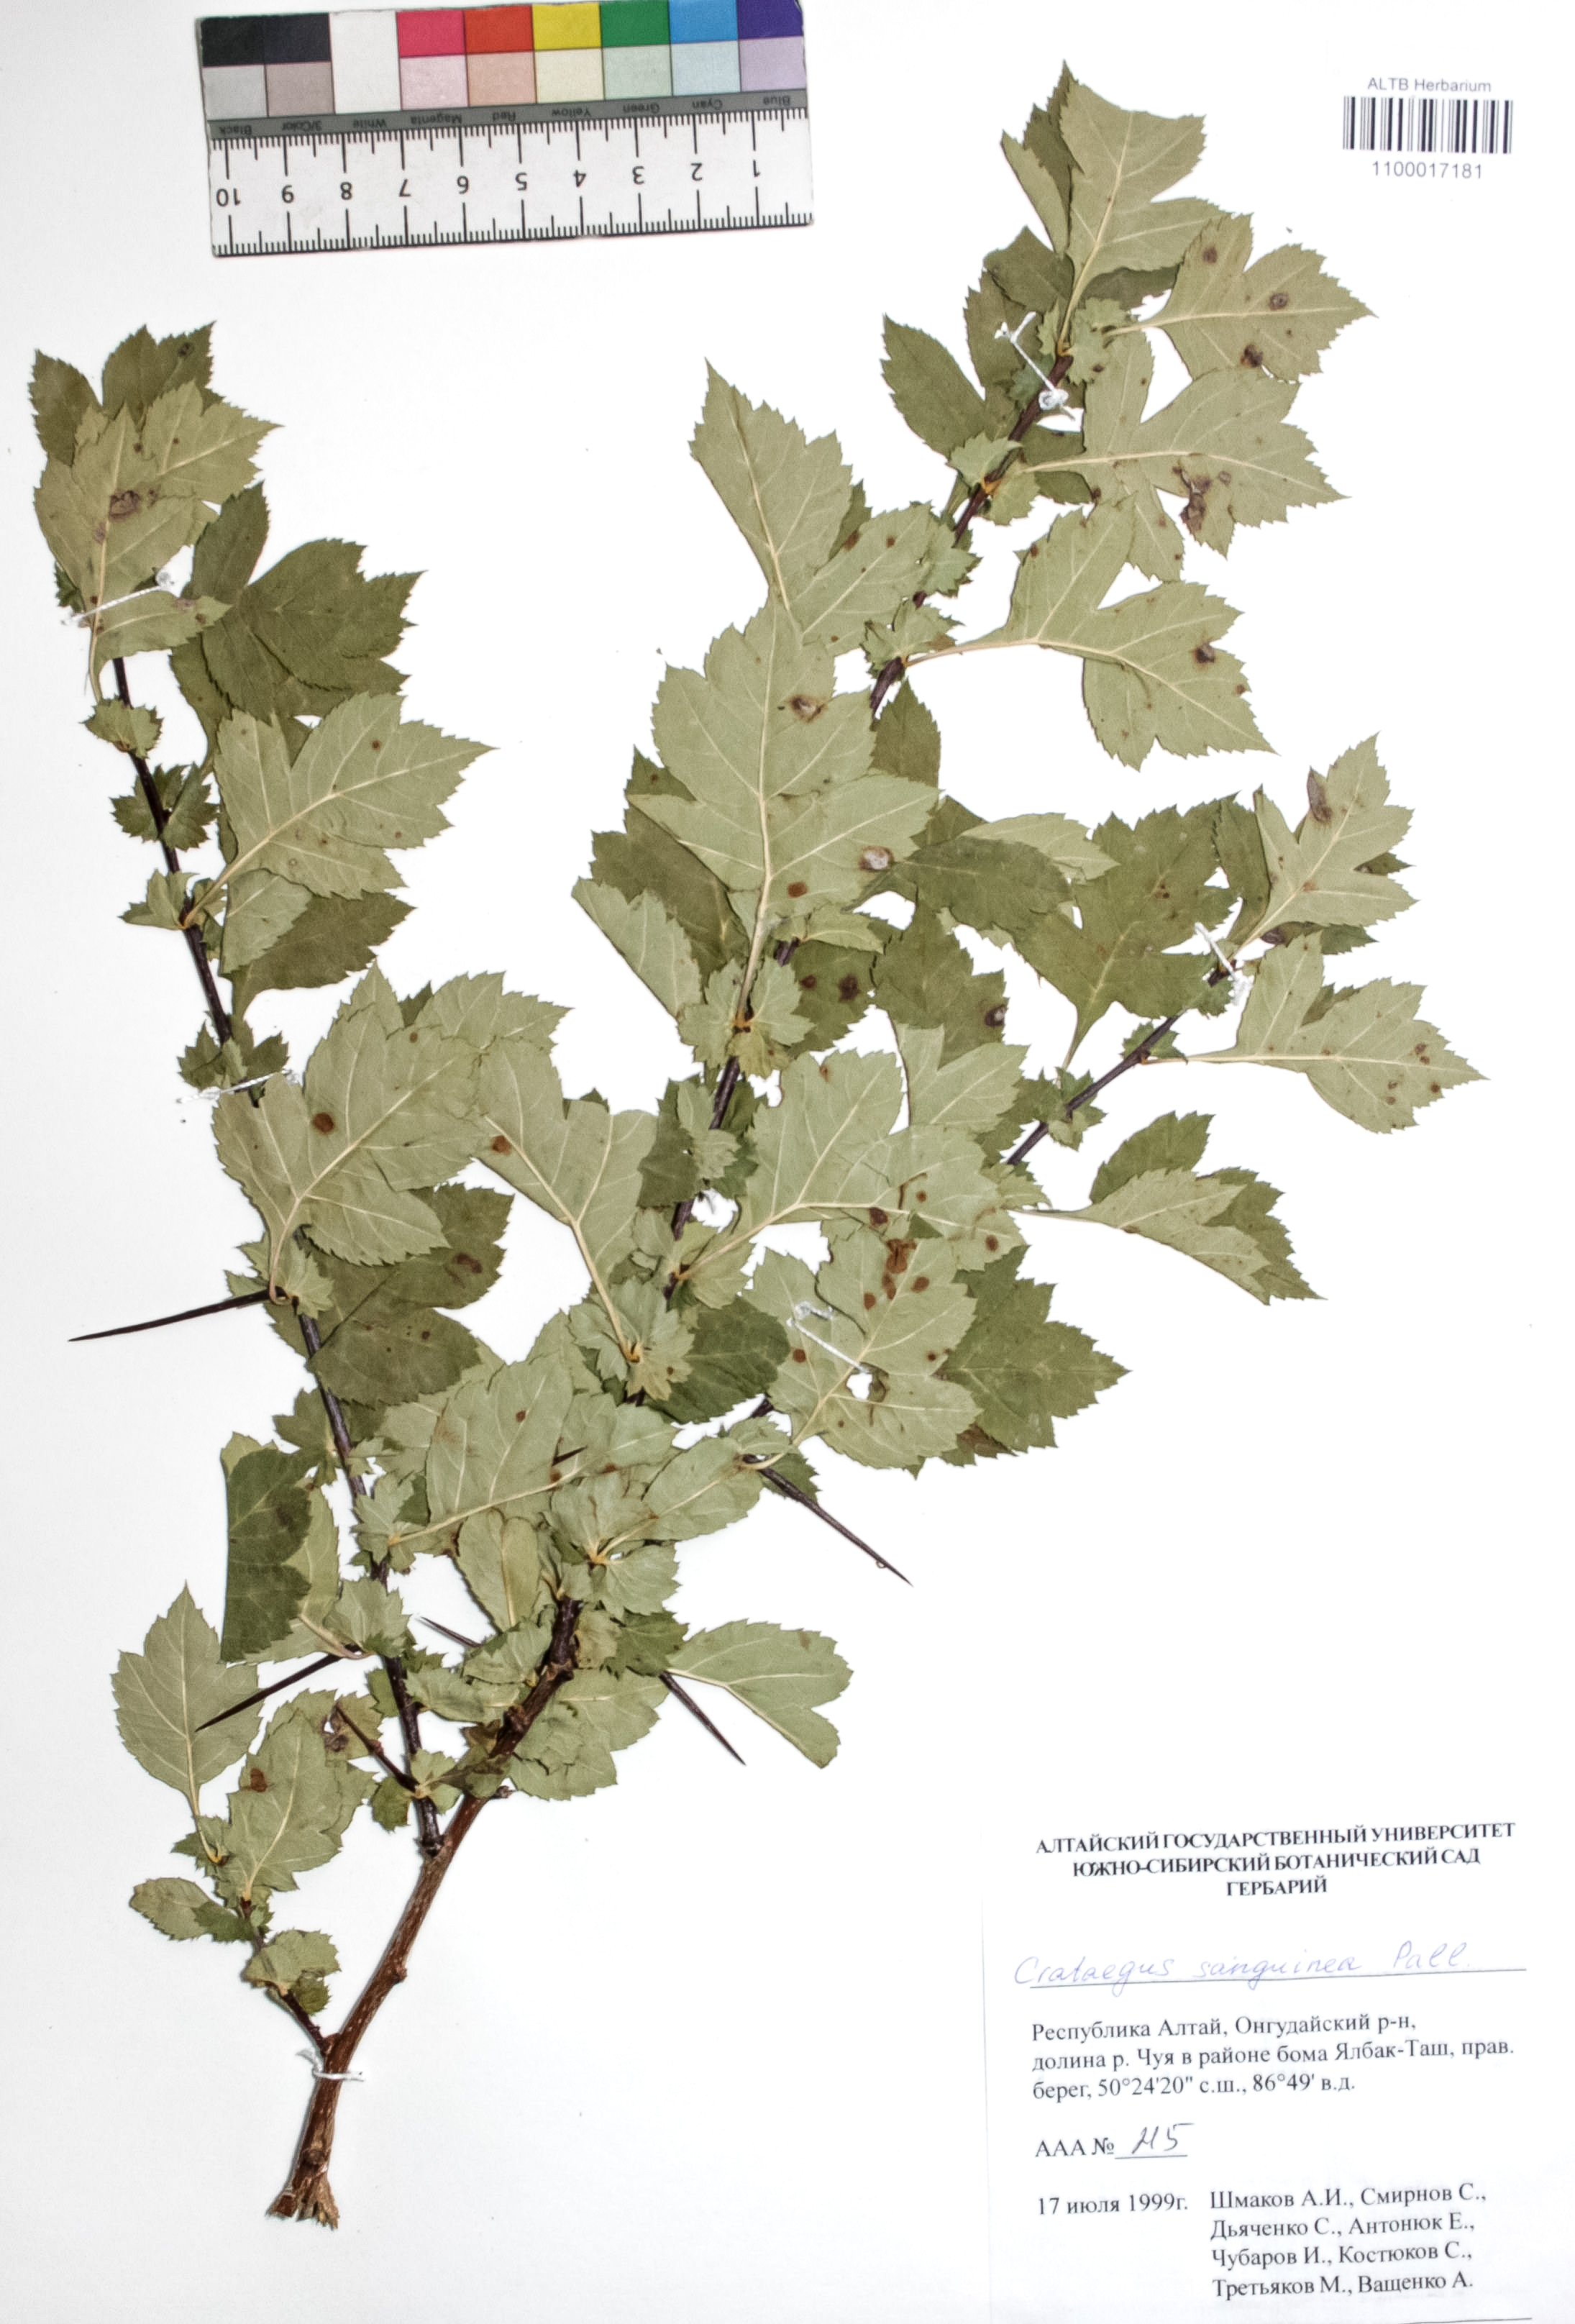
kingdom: Plantae
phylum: Tracheophyta
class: Magnoliopsida
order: Rosales
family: Rosaceae
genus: Crataegus
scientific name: Crataegus sanguinea
